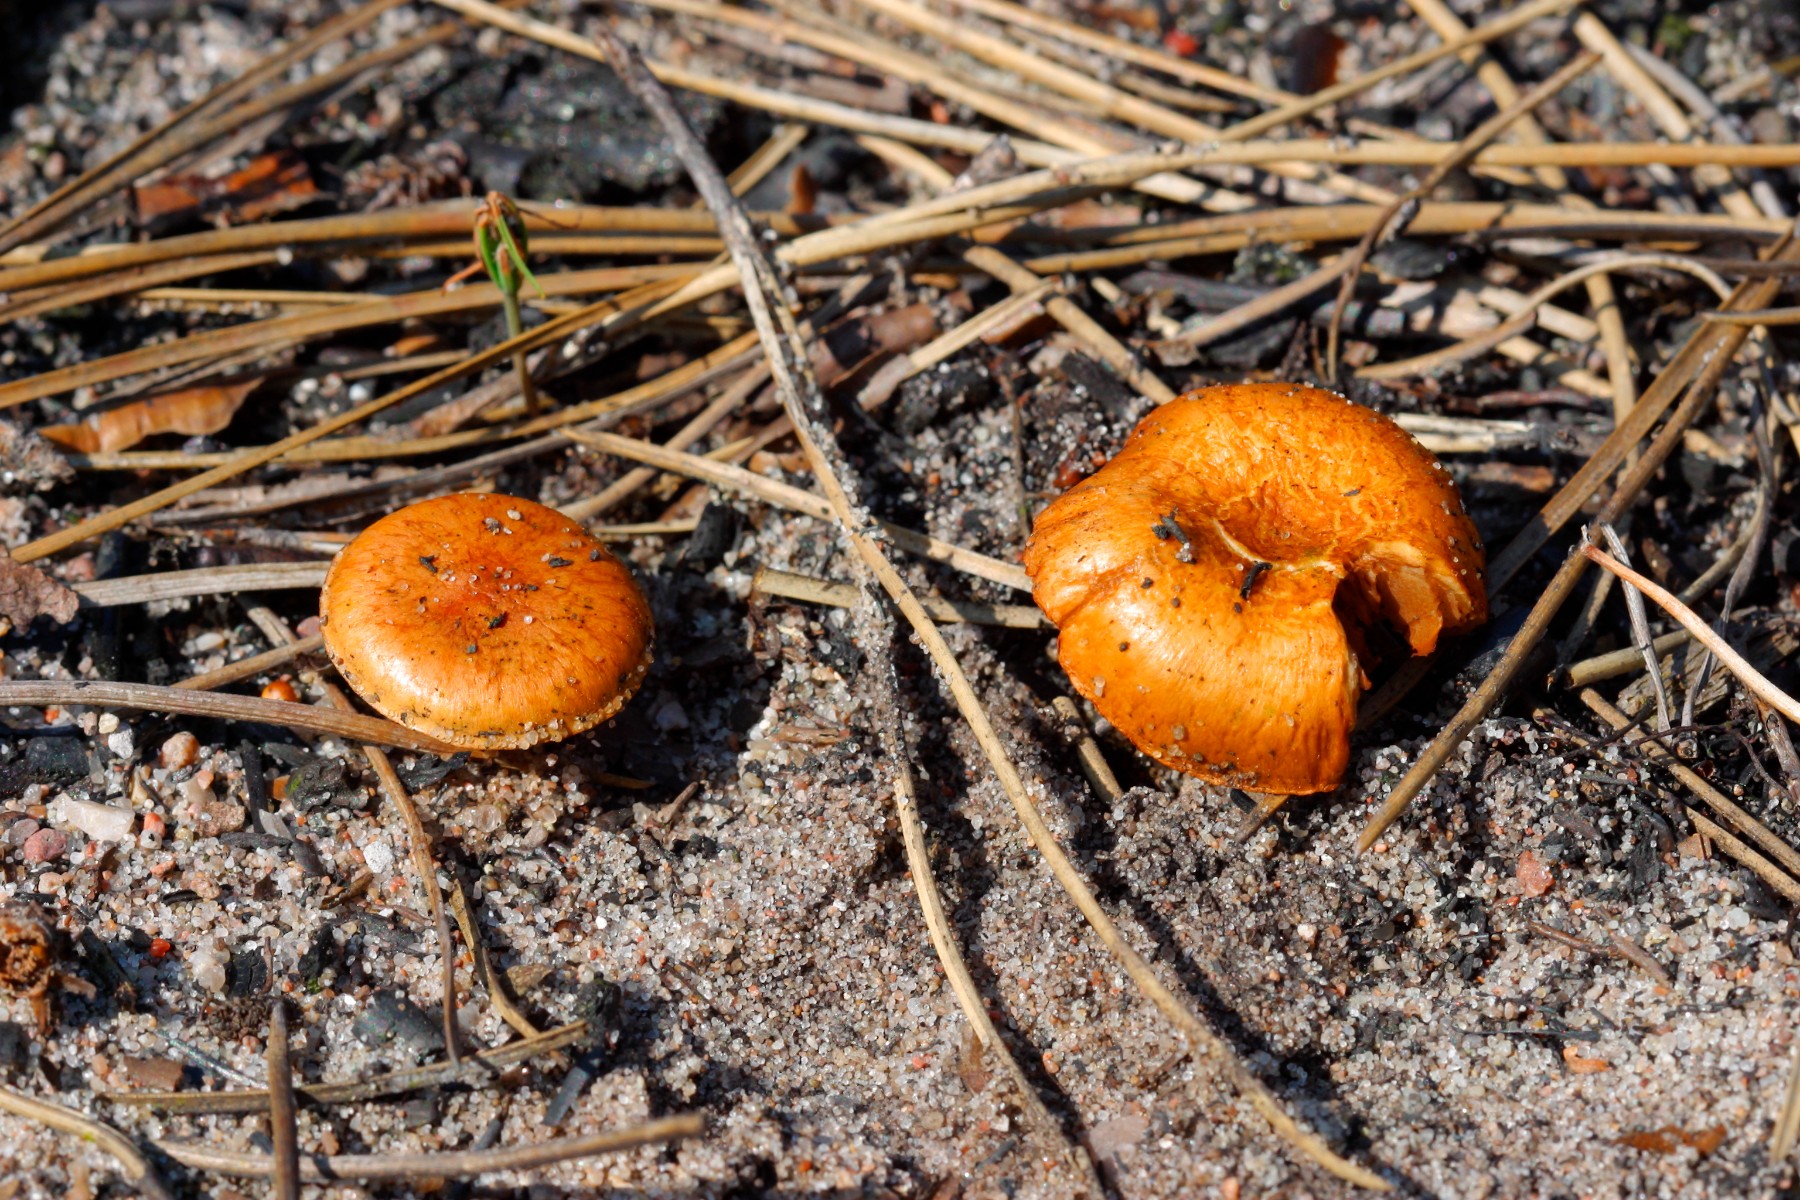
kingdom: Fungi
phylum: Basidiomycota
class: Agaricomycetes
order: Agaricales
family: Strophariaceae
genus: Pholiota
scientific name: Pholiota carbonaria
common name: kul-skælhat
